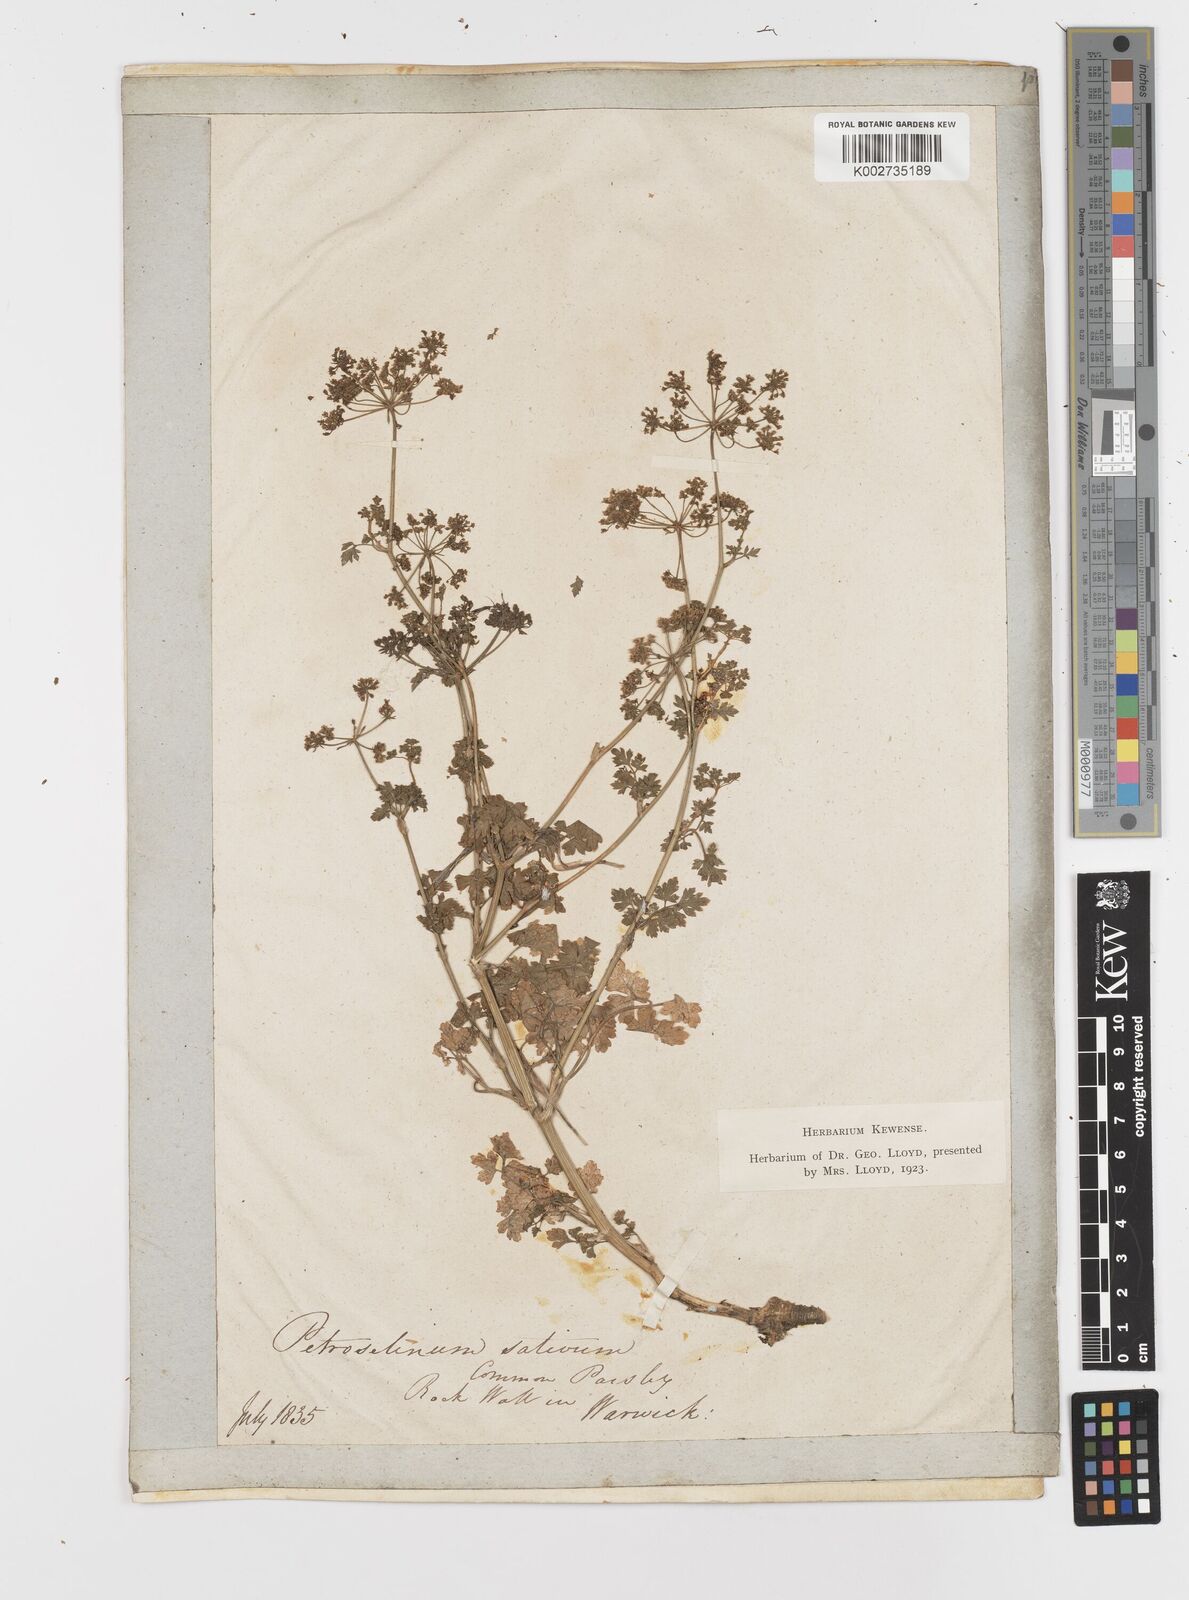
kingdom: Plantae
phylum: Tracheophyta
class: Magnoliopsida
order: Apiales
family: Apiaceae
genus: Petroselinum
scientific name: Petroselinum crispum
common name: Parsley
